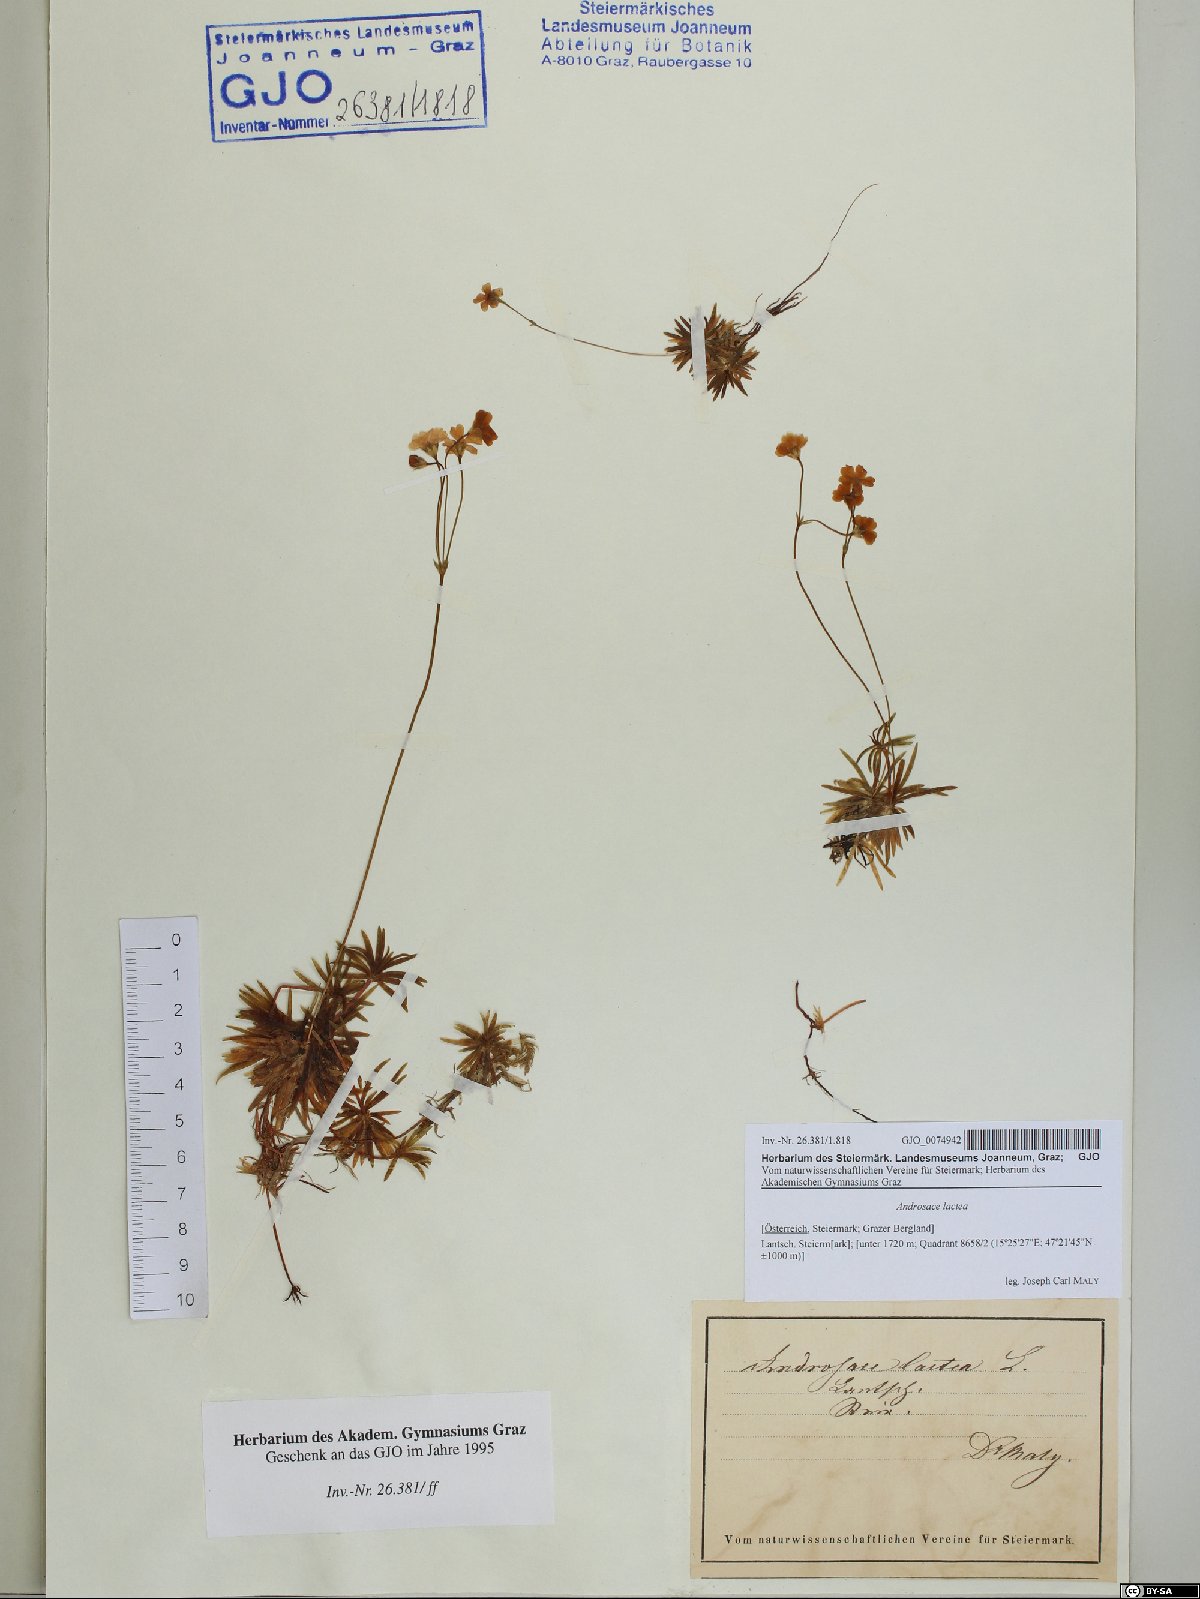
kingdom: Plantae
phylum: Tracheophyta
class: Magnoliopsida
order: Ericales
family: Primulaceae
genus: Androsace
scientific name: Androsace lactea
